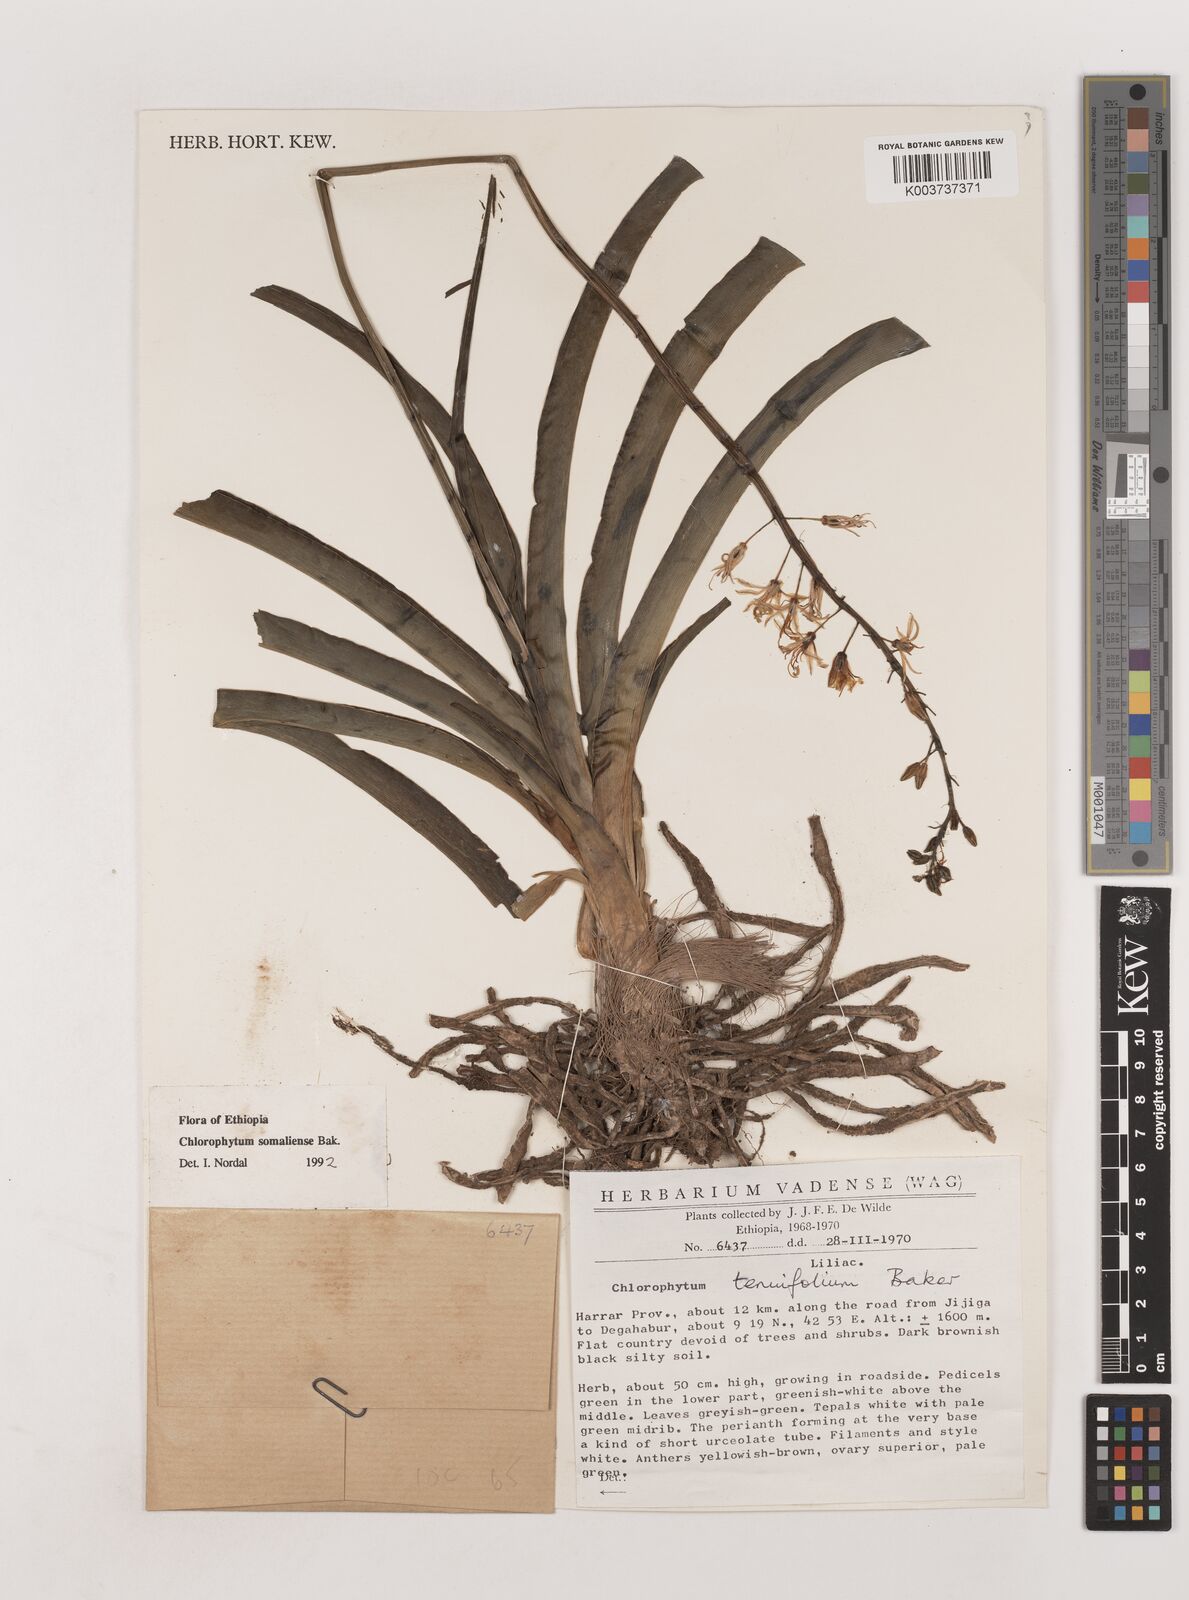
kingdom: Plantae
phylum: Tracheophyta
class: Liliopsida
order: Asparagales
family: Asparagaceae
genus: Chlorophytum
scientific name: Chlorophytum somaliense
